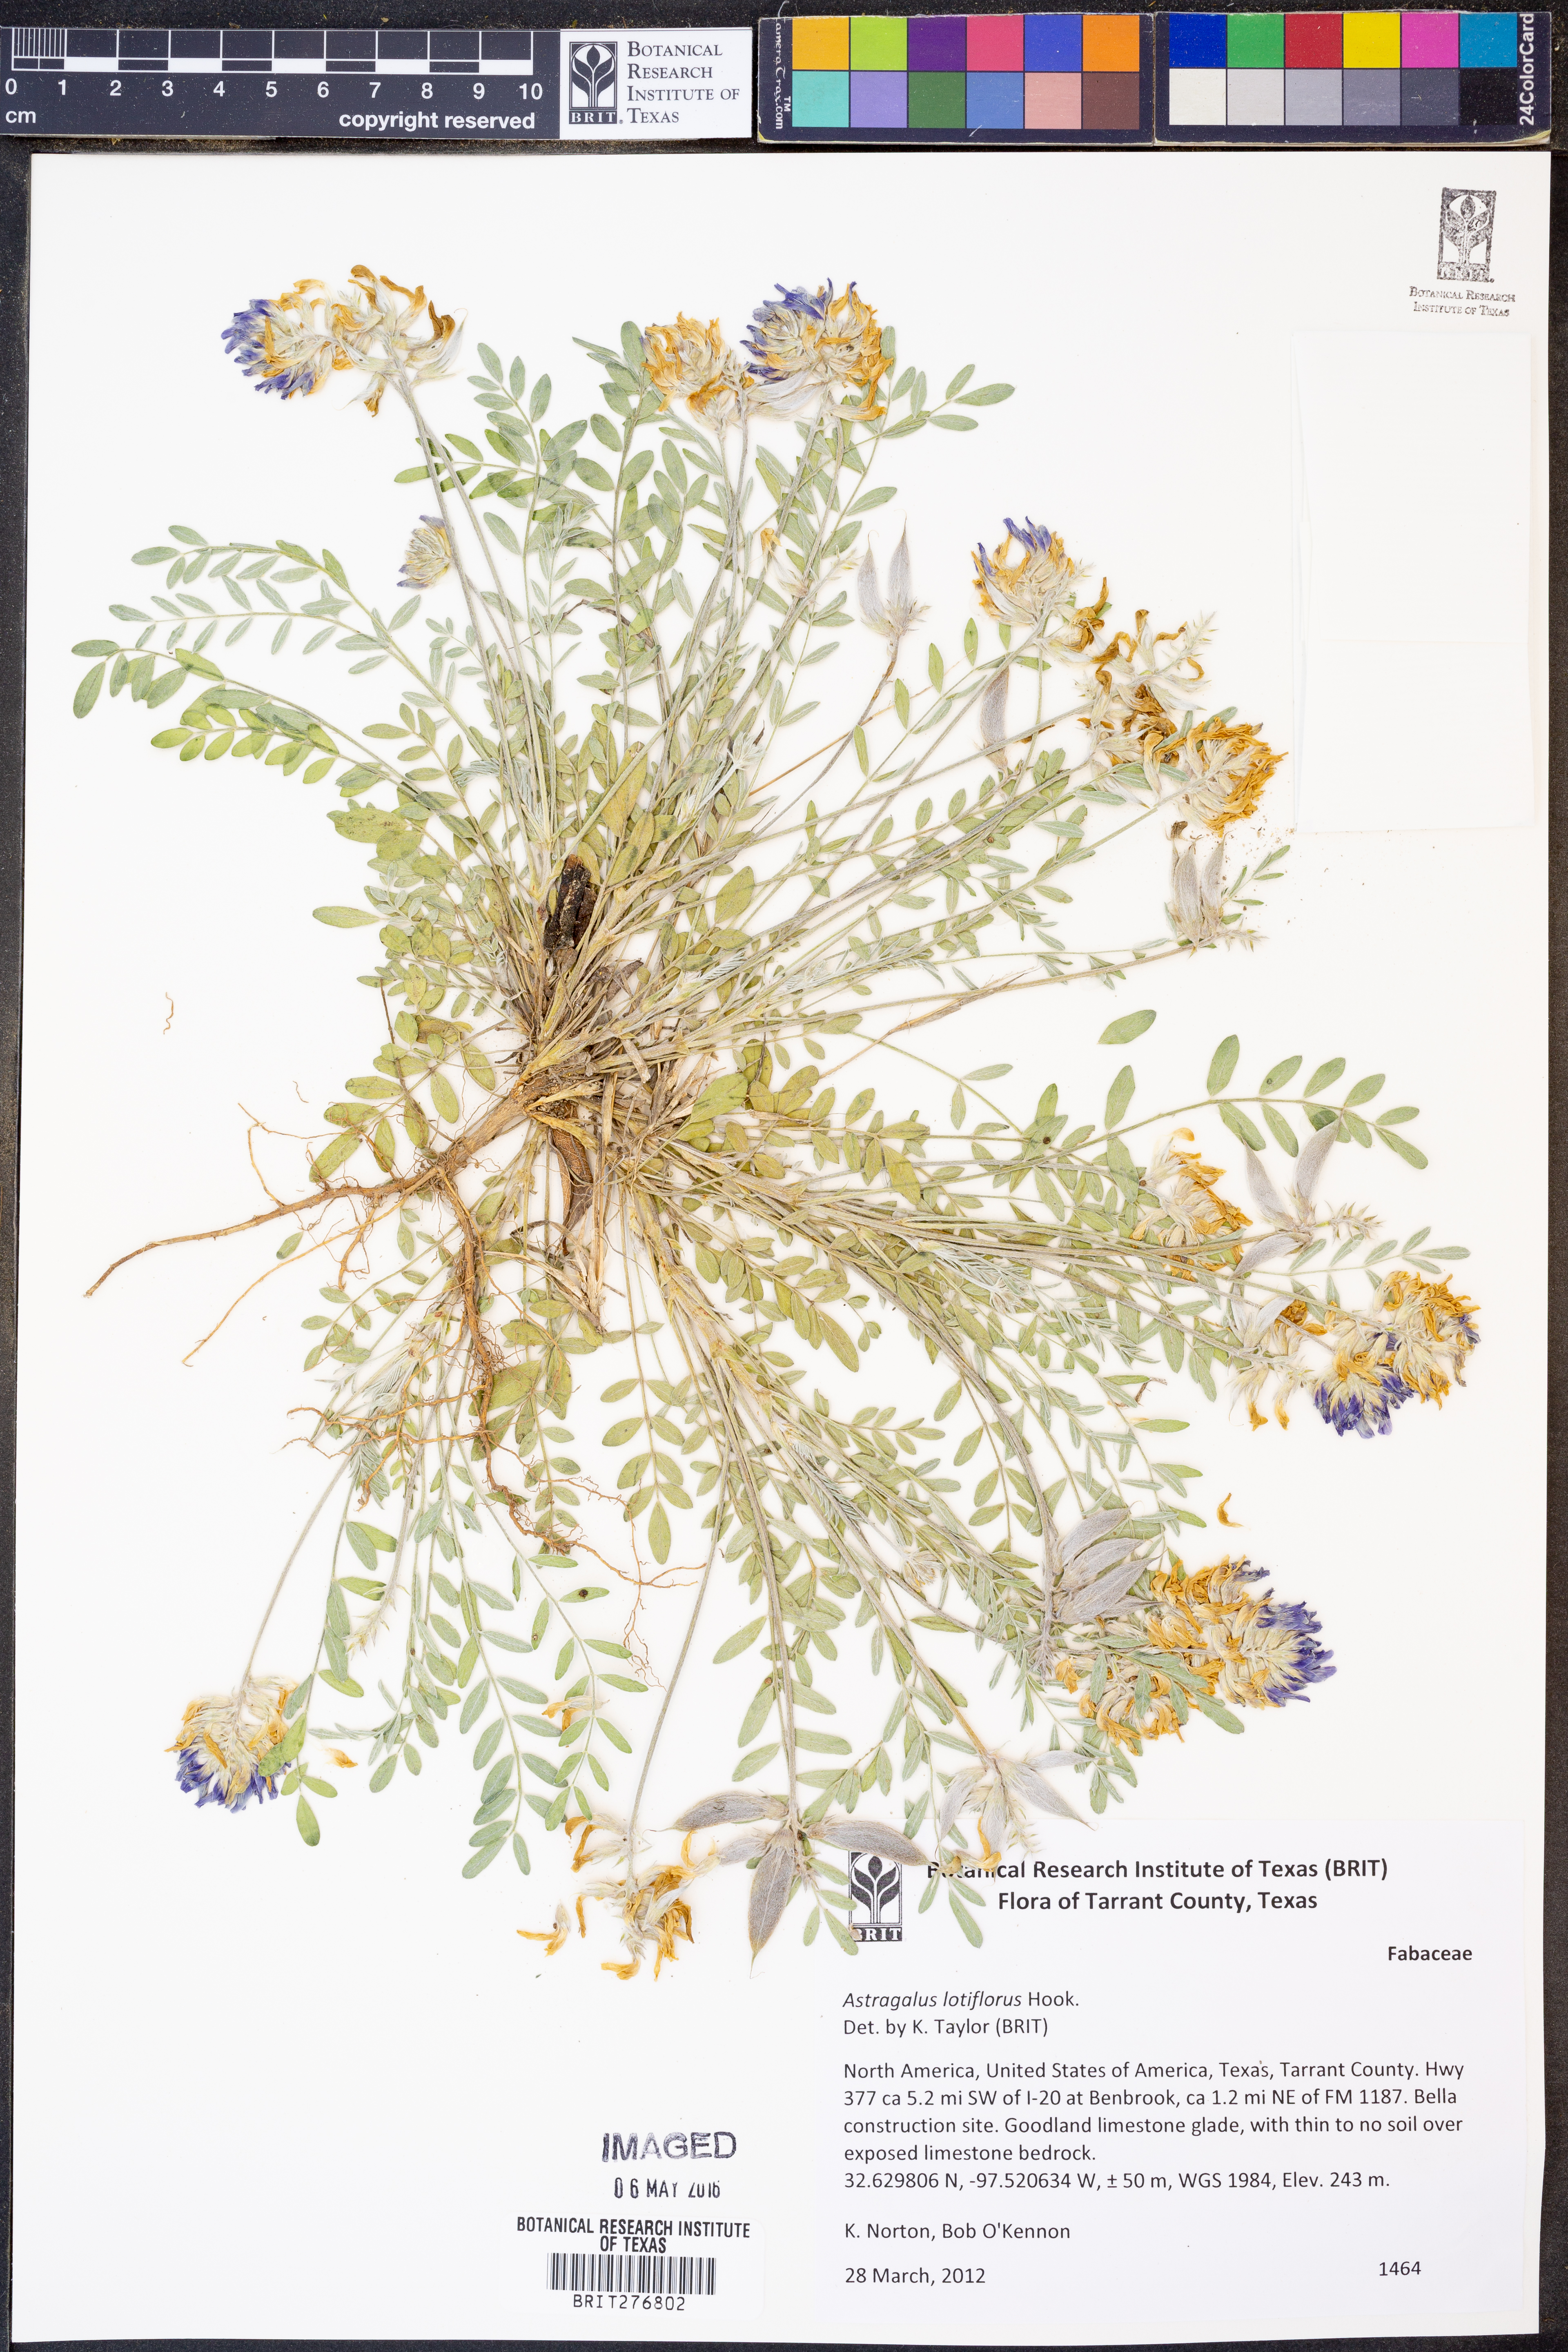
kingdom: Plantae
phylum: Tracheophyta
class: Magnoliopsida
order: Fabales
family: Fabaceae
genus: Astragalus
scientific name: Astragalus lotiflorus
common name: Lotus milk-vetch
